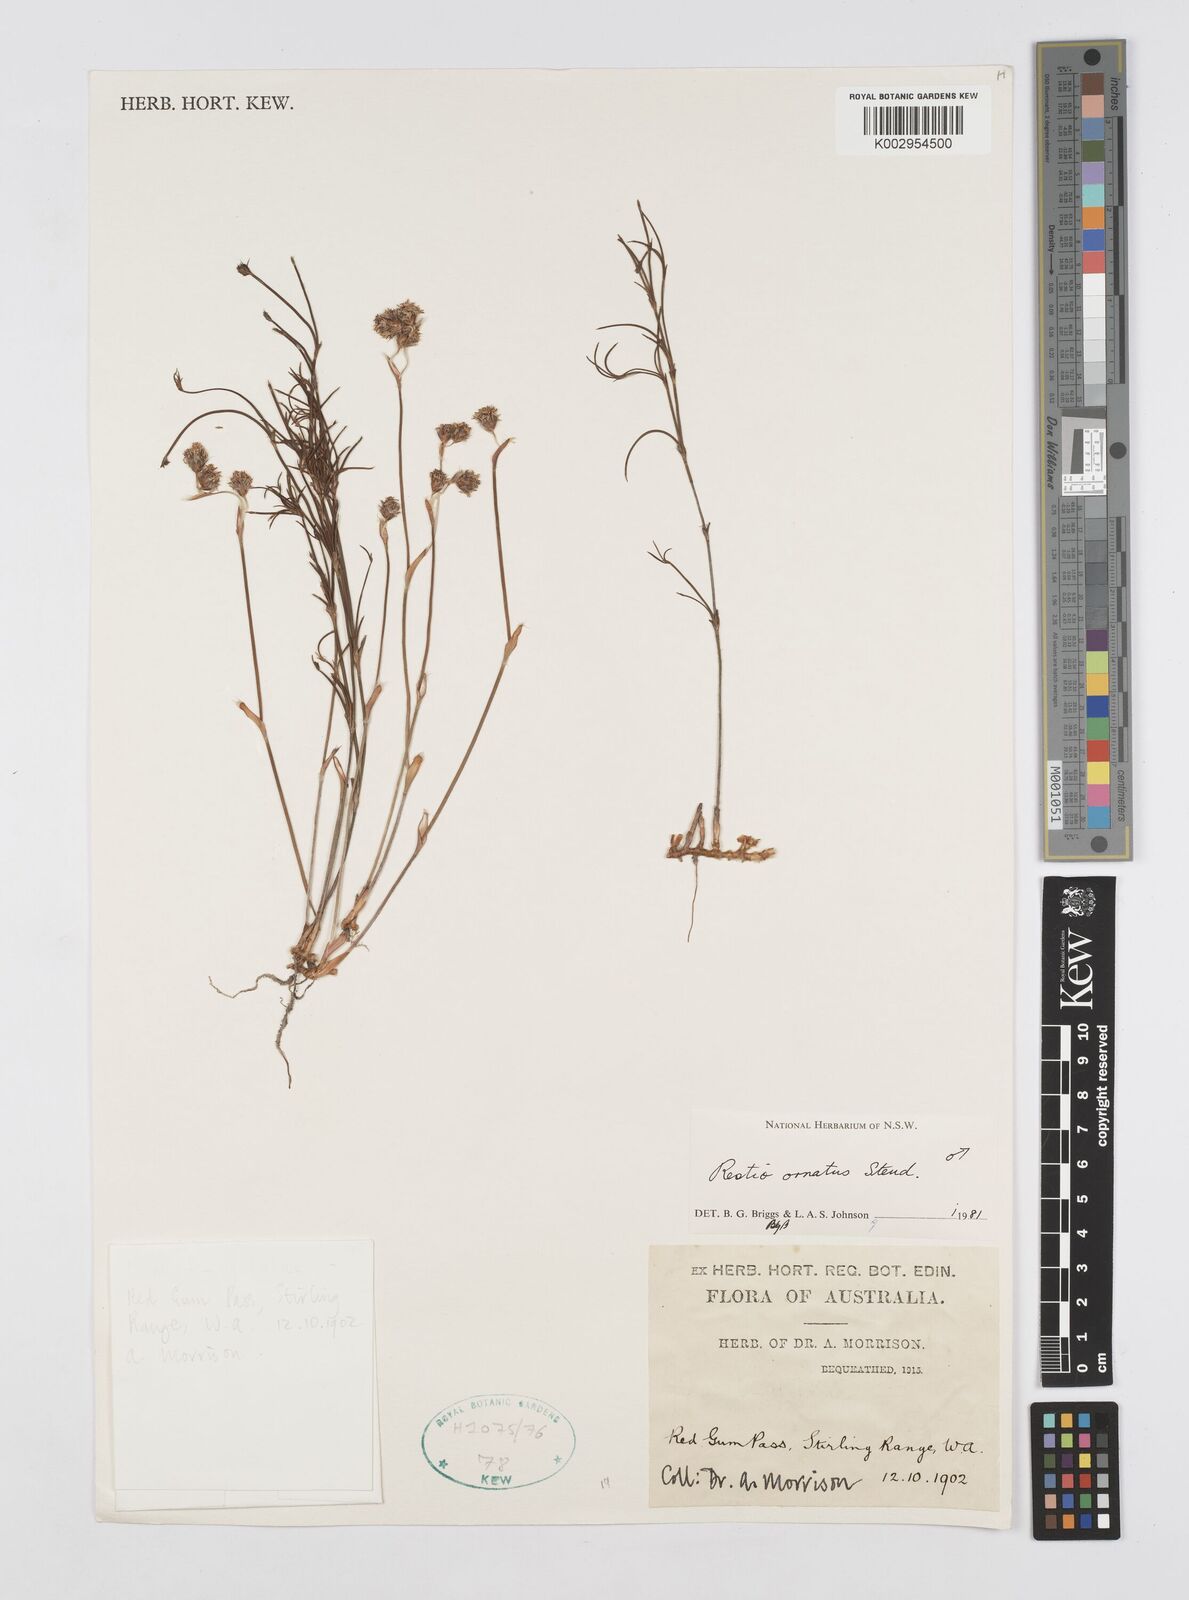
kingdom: Plantae
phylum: Tracheophyta
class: Liliopsida
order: Poales
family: Restionaceae
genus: Chordifex
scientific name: Chordifex ornatus
